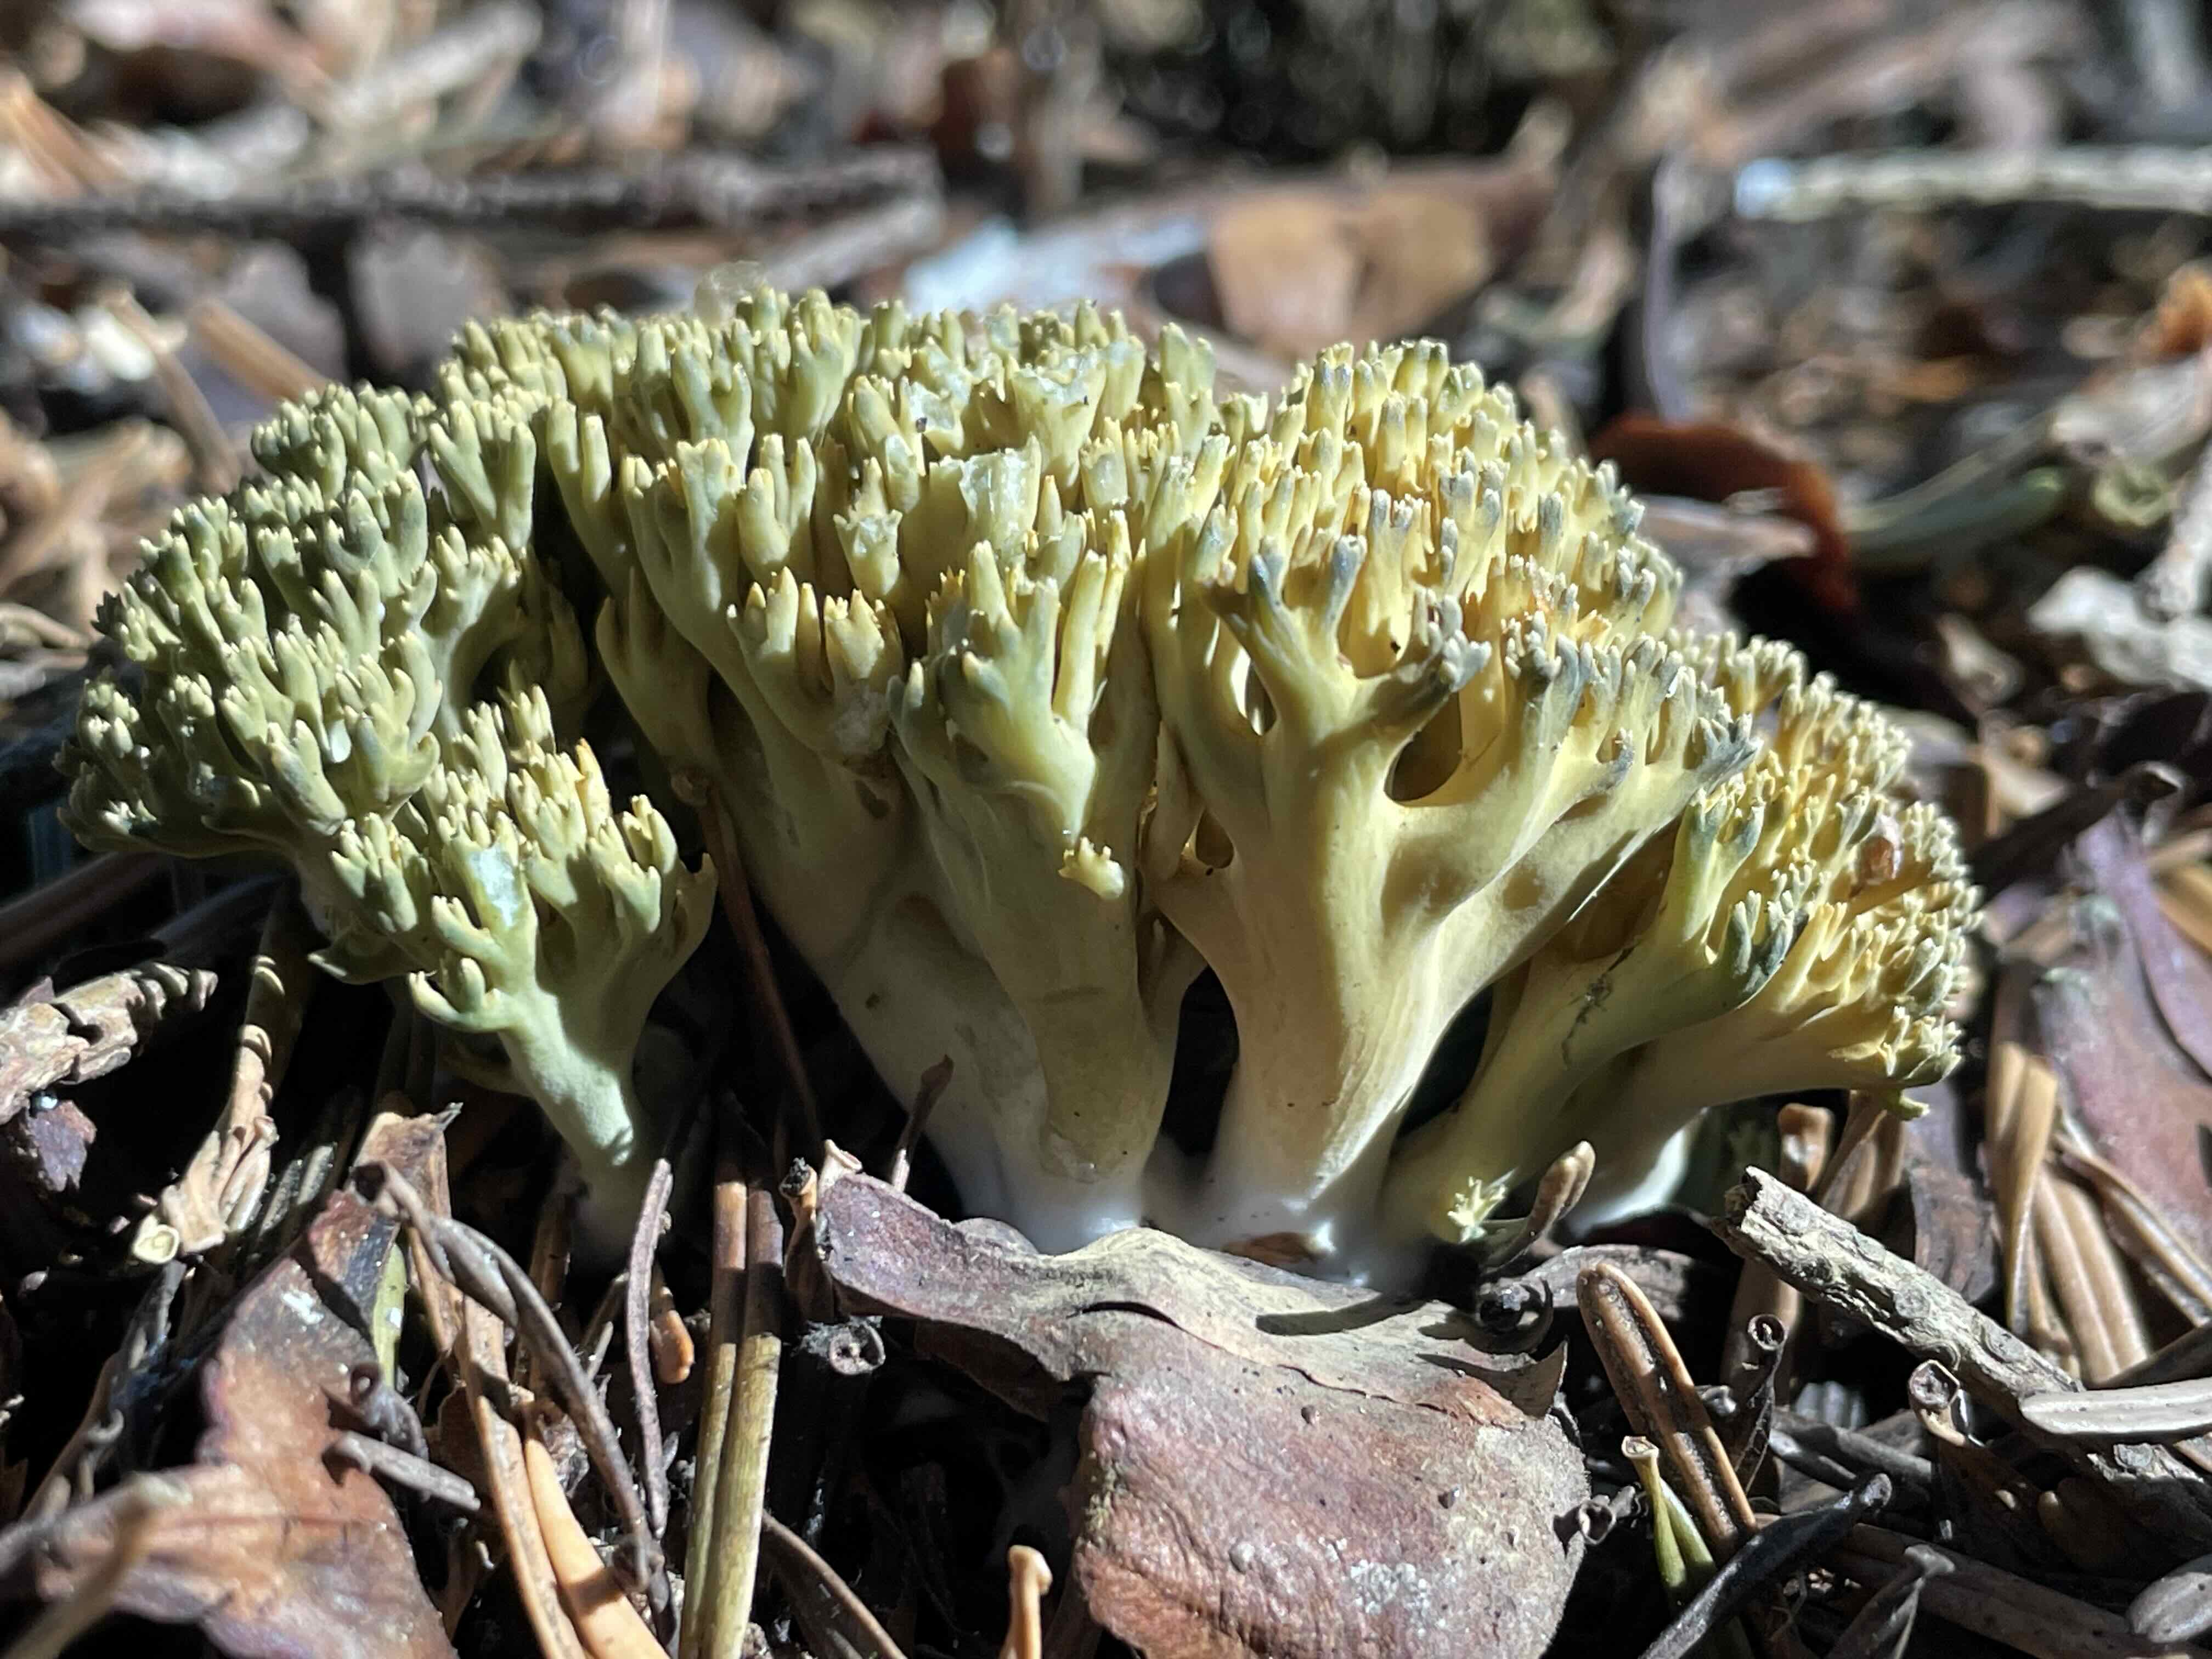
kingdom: Fungi
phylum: Basidiomycota
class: Agaricomycetes
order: Gomphales
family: Gomphaceae
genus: Phaeoclavulina
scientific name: Phaeoclavulina abietina
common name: gulgrøn koralsvamp
